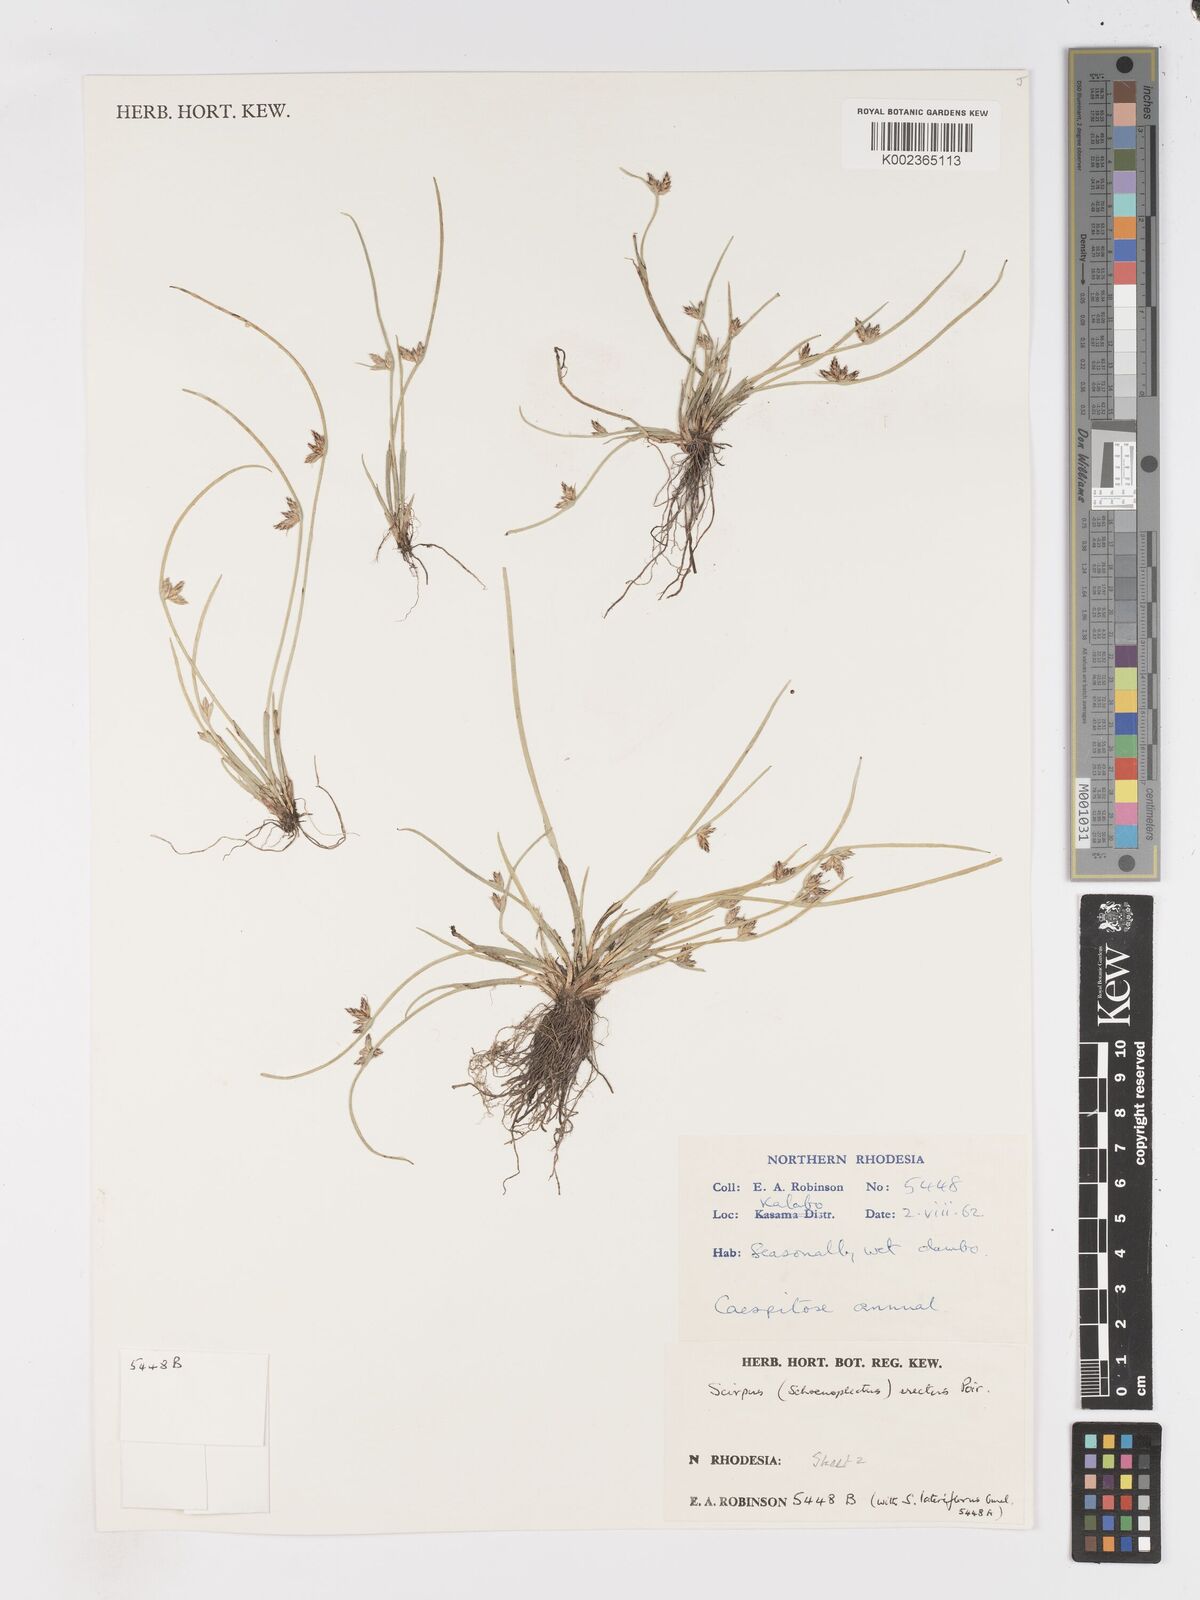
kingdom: Plantae
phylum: Tracheophyta
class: Liliopsida
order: Poales
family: Cyperaceae
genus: Schoenoplectiella
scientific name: Schoenoplectiella erecta
